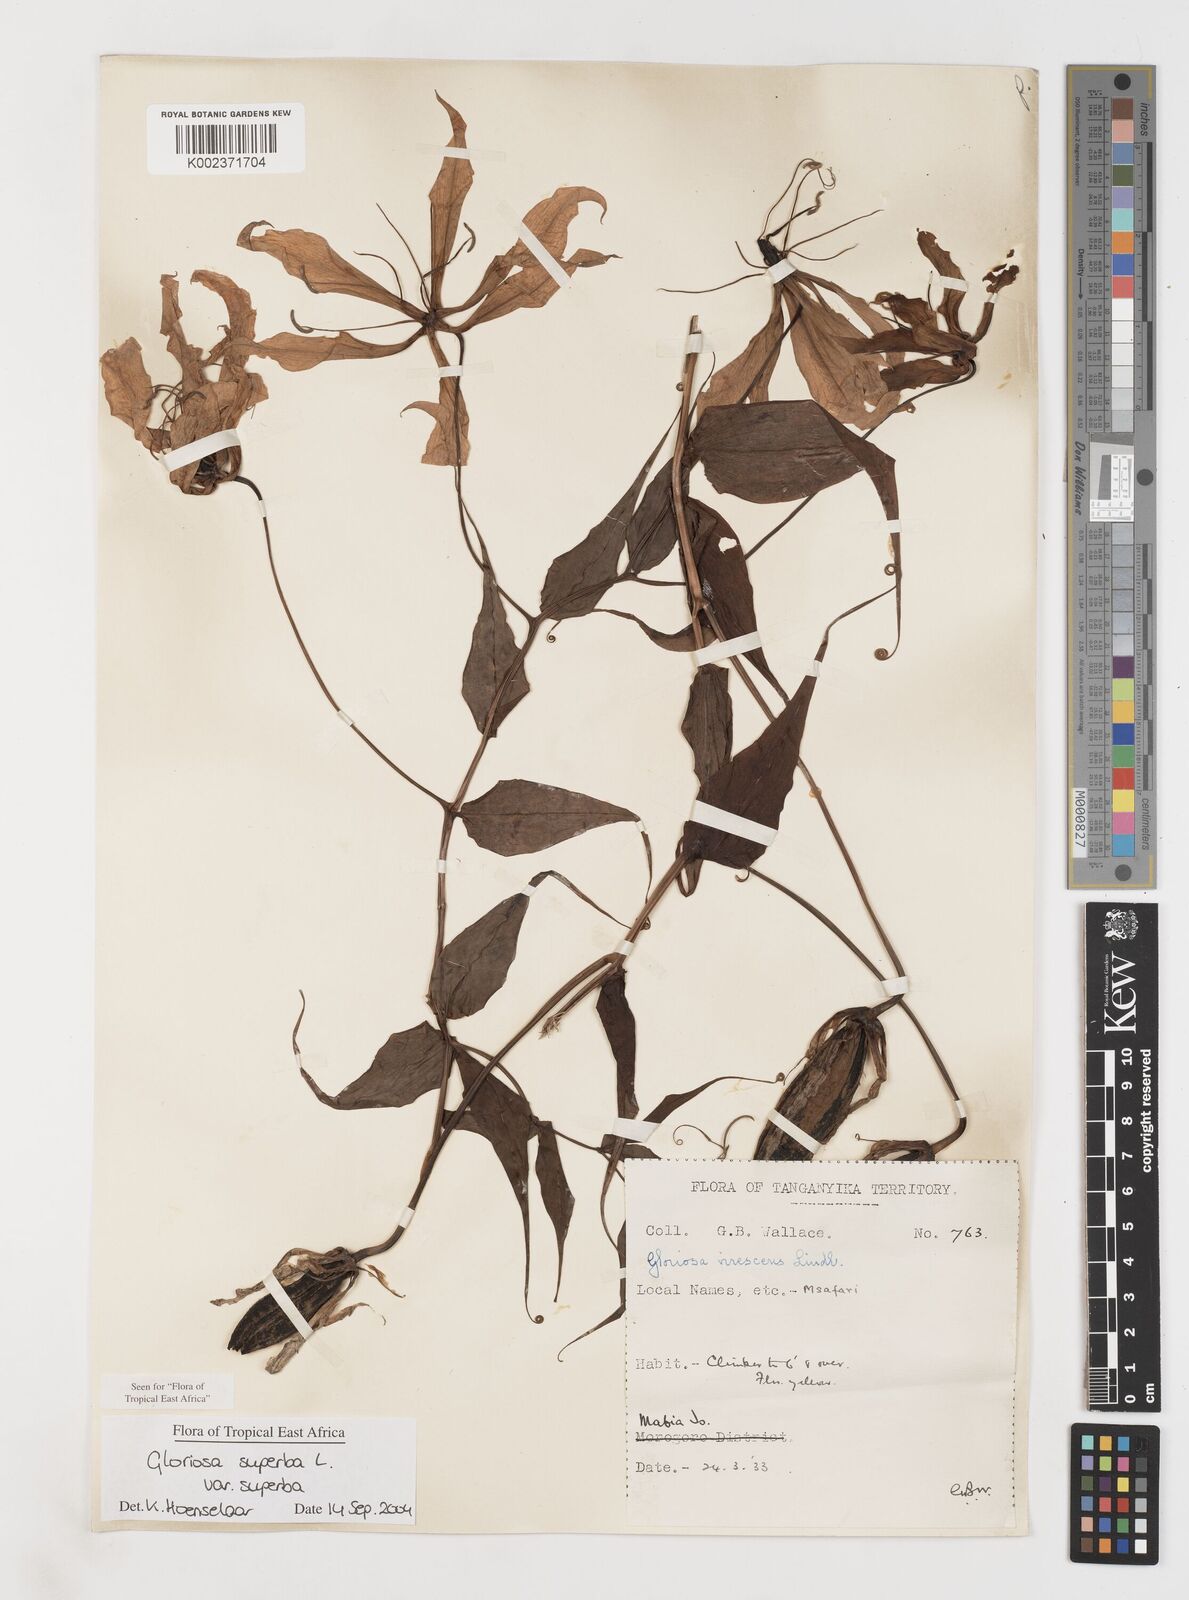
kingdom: Plantae
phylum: Tracheophyta
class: Liliopsida
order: Liliales
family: Colchicaceae
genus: Gloriosa
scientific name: Gloriosa simplex
